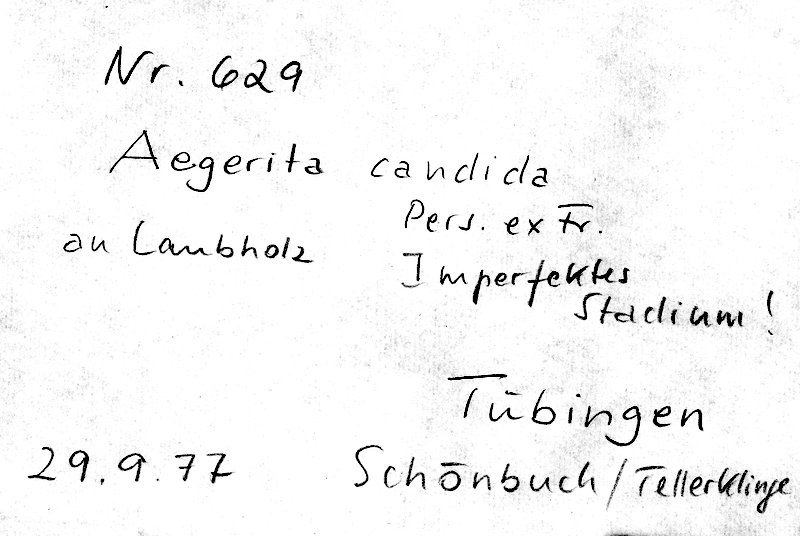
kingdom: Fungi
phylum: Basidiomycota
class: Agaricomycetes
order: Polyporales
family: Meruliaceae
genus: Bulbillomyces
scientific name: Bulbillomyces farinosus
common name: Couscous crust
